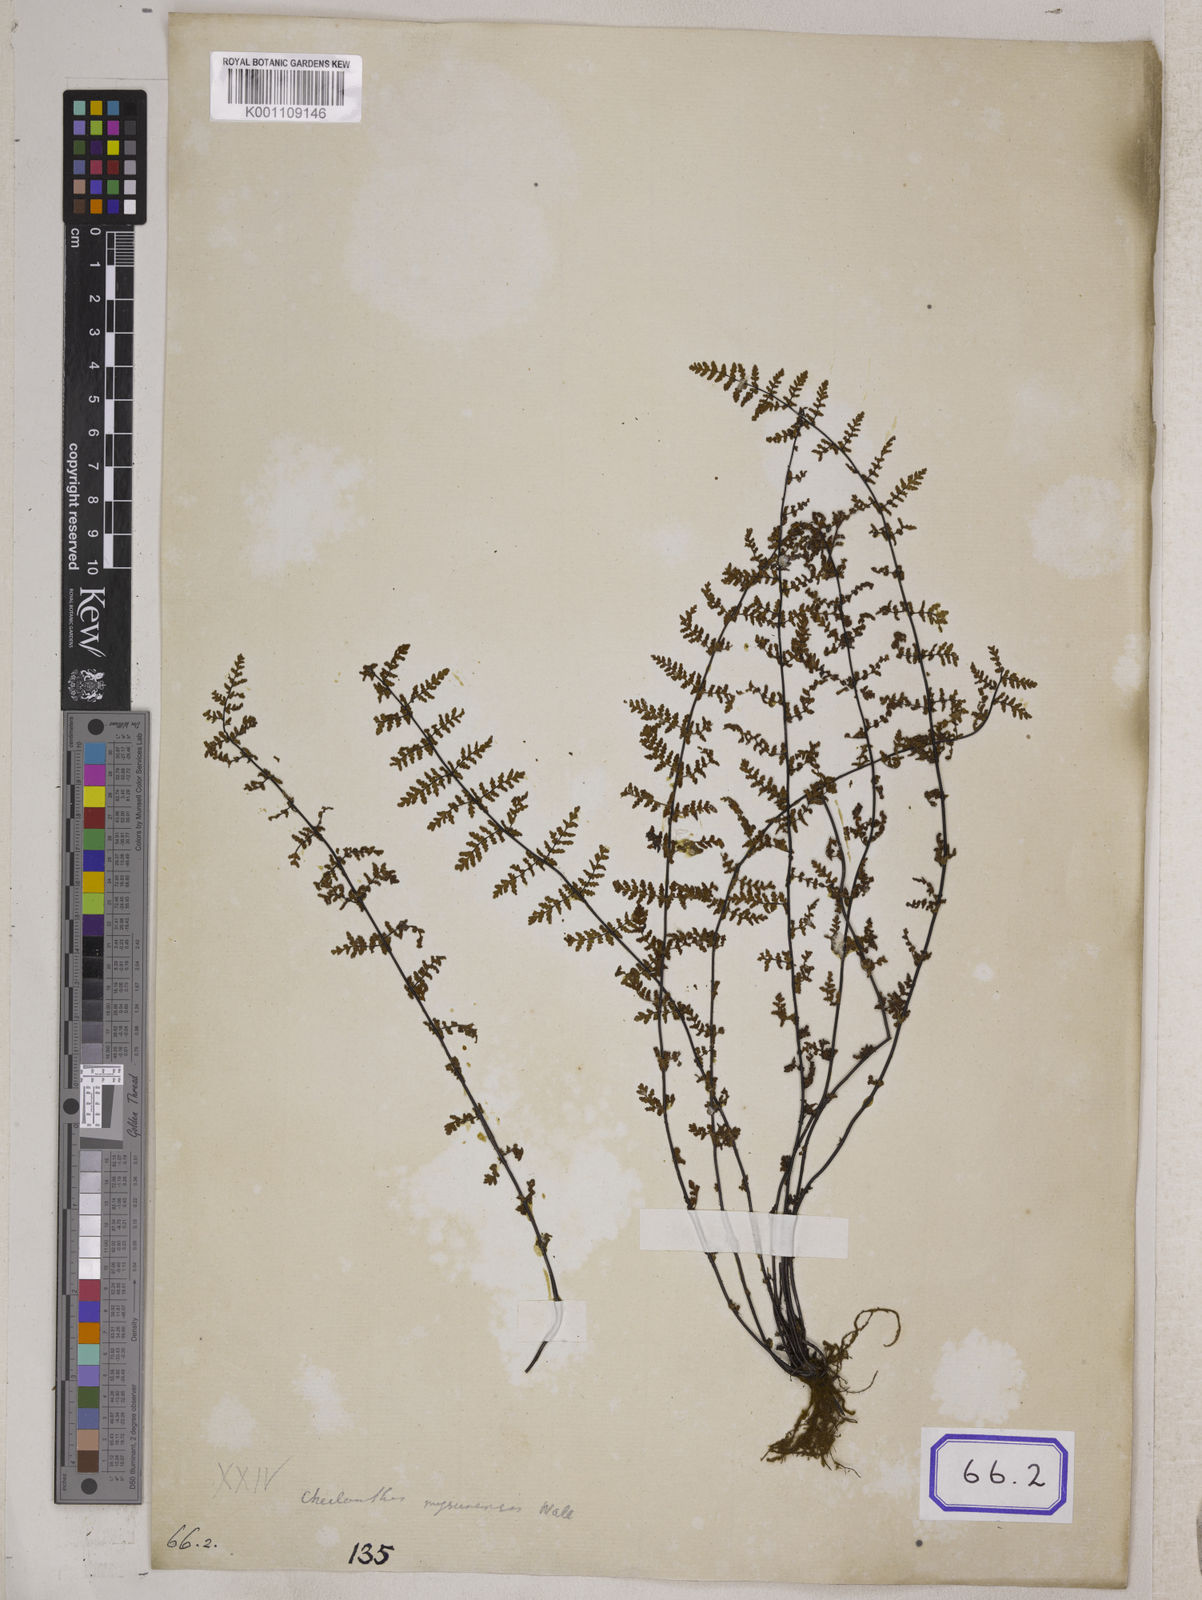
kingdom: Plantae
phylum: Tracheophyta
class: Polypodiopsida
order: Polypodiales
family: Pteridaceae
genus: Oeosporangium
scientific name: Oeosporangium elegans
